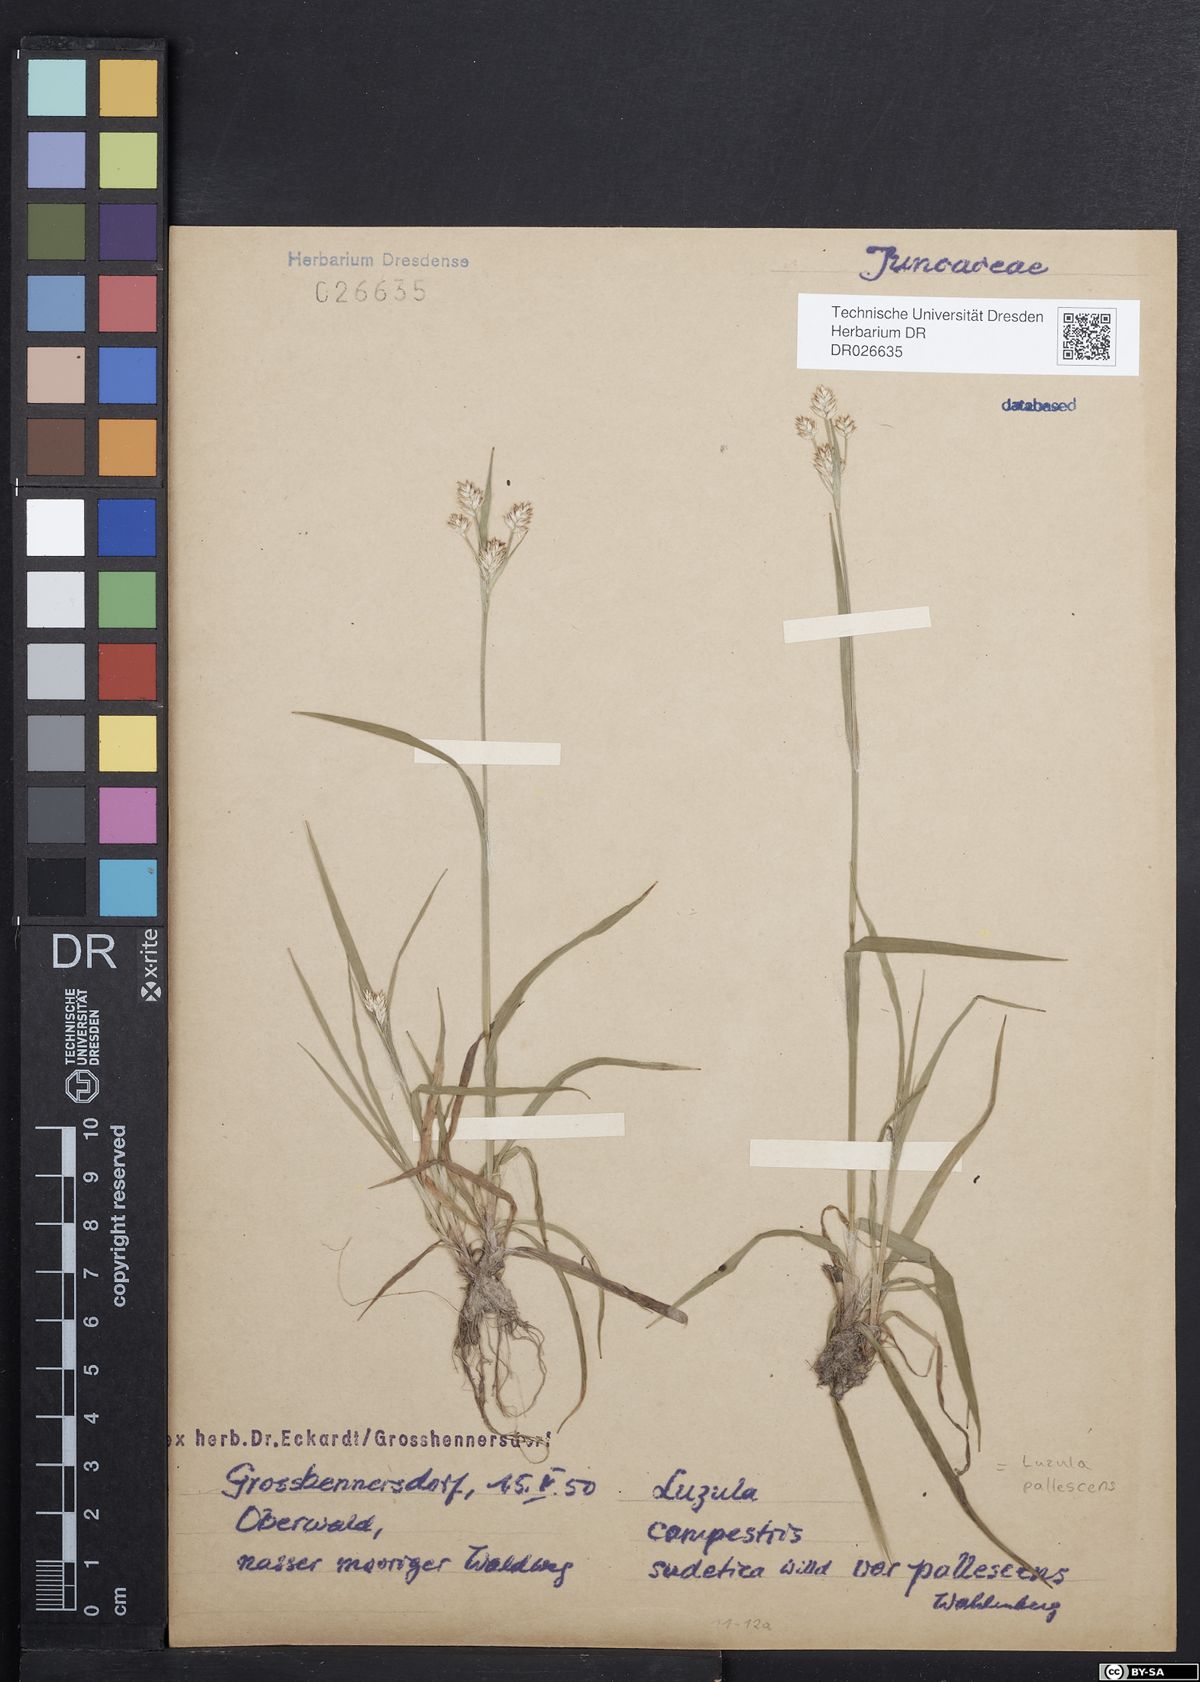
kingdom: Plantae
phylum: Tracheophyta
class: Liliopsida
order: Poales
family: Juncaceae
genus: Luzula
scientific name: Luzula pallescens
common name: Fen wood-rush
